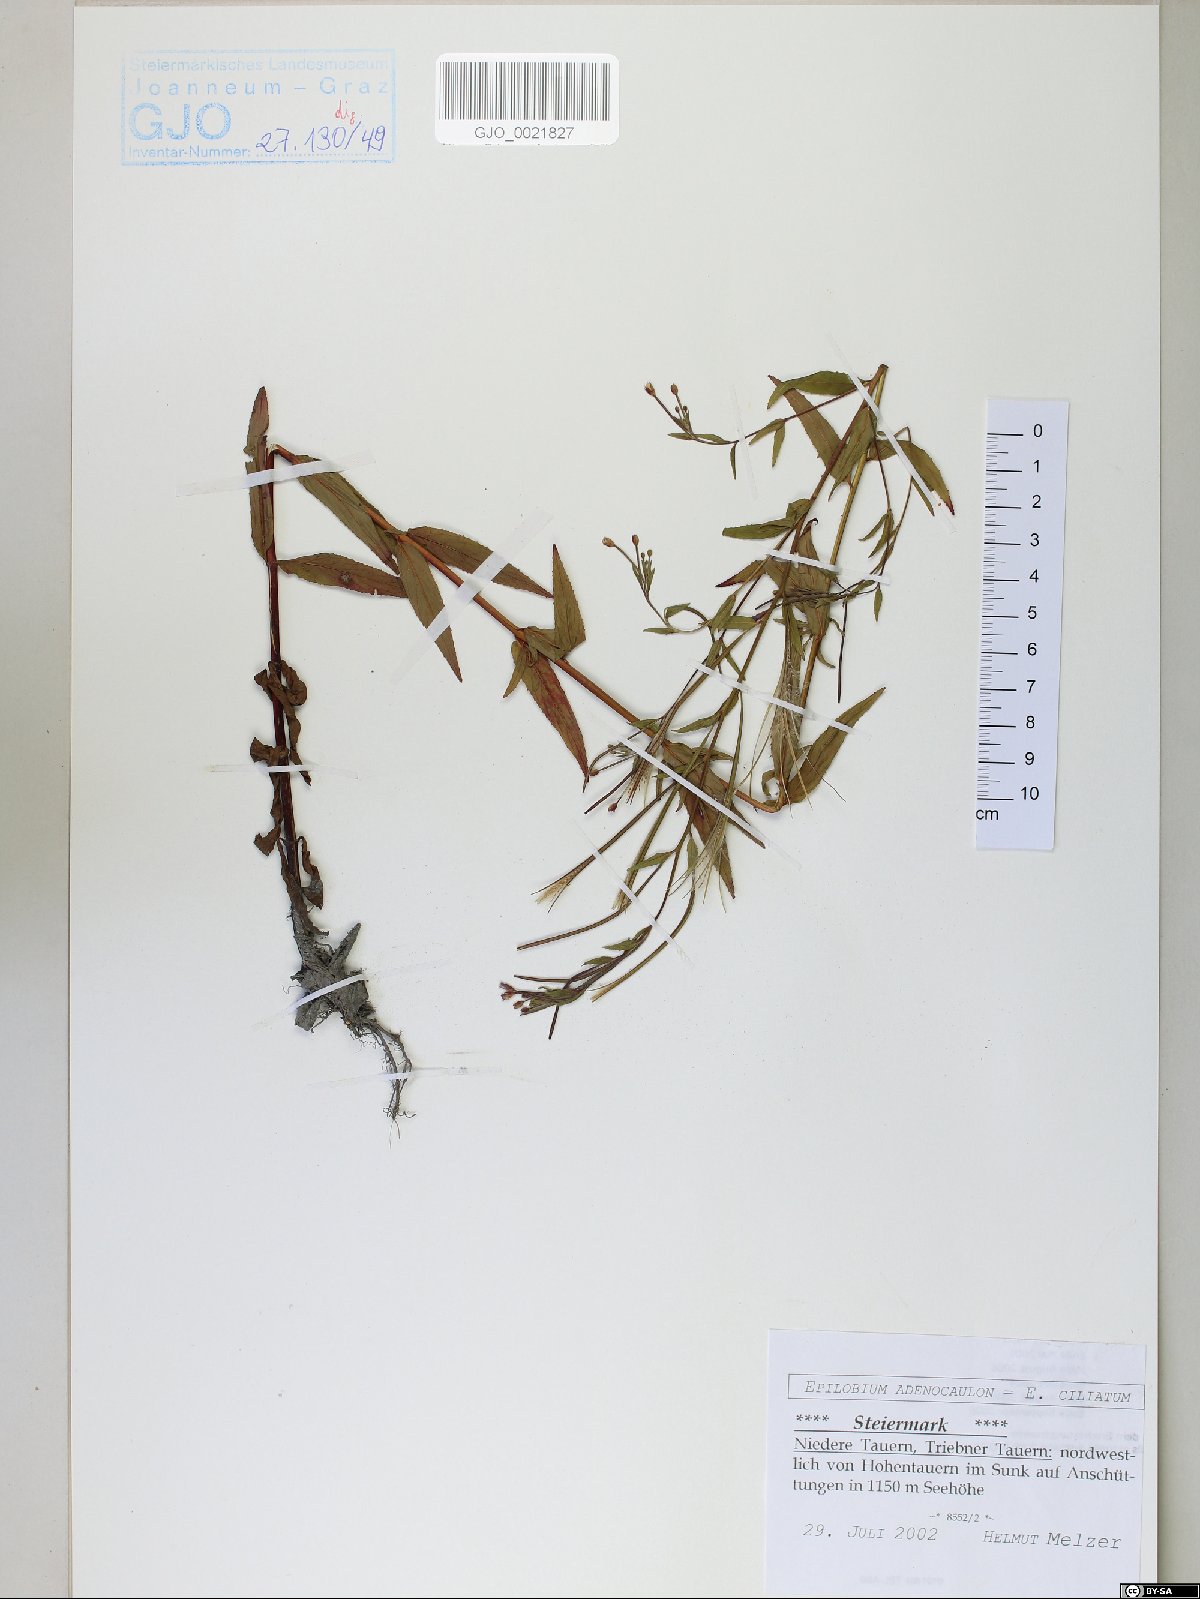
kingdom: Plantae
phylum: Tracheophyta
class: Magnoliopsida
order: Myrtales
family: Onagraceae
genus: Epilobium
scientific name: Epilobium ciliatum
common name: American willowherb
